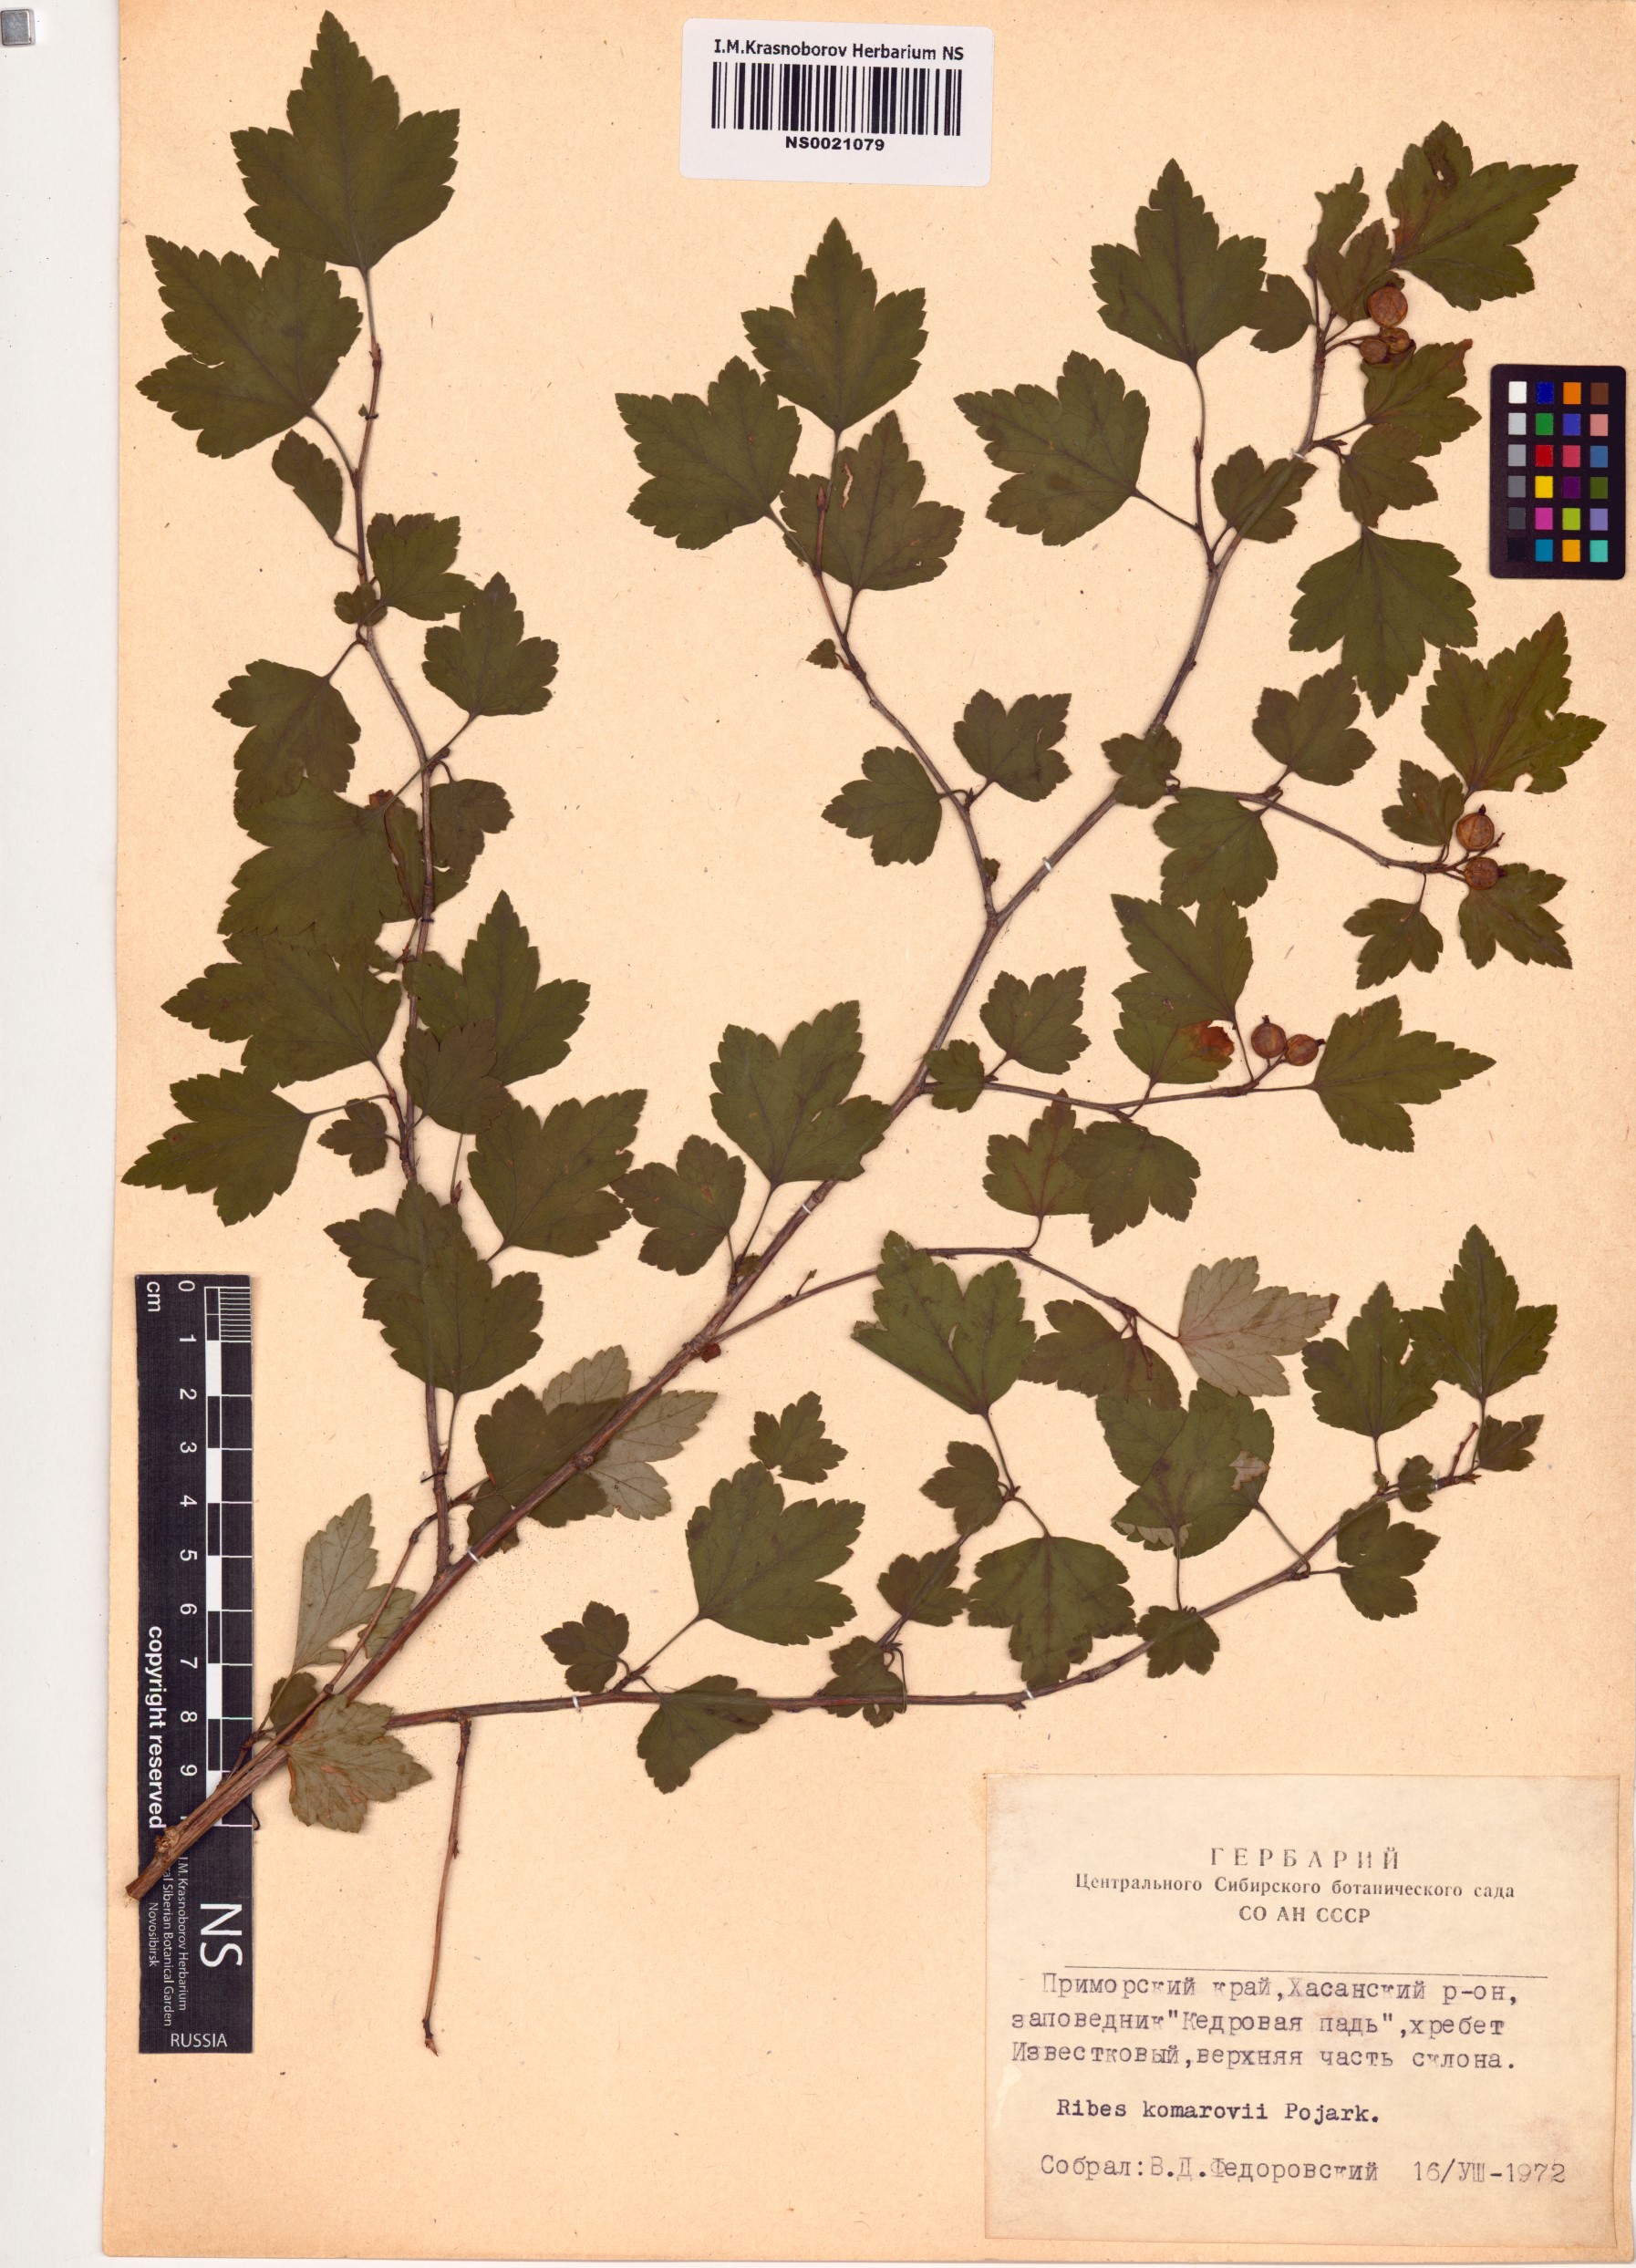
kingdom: Plantae
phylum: Tracheophyta
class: Magnoliopsida
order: Saxifragales
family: Grossulariaceae
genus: Ribes
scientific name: Ribes komarovii
